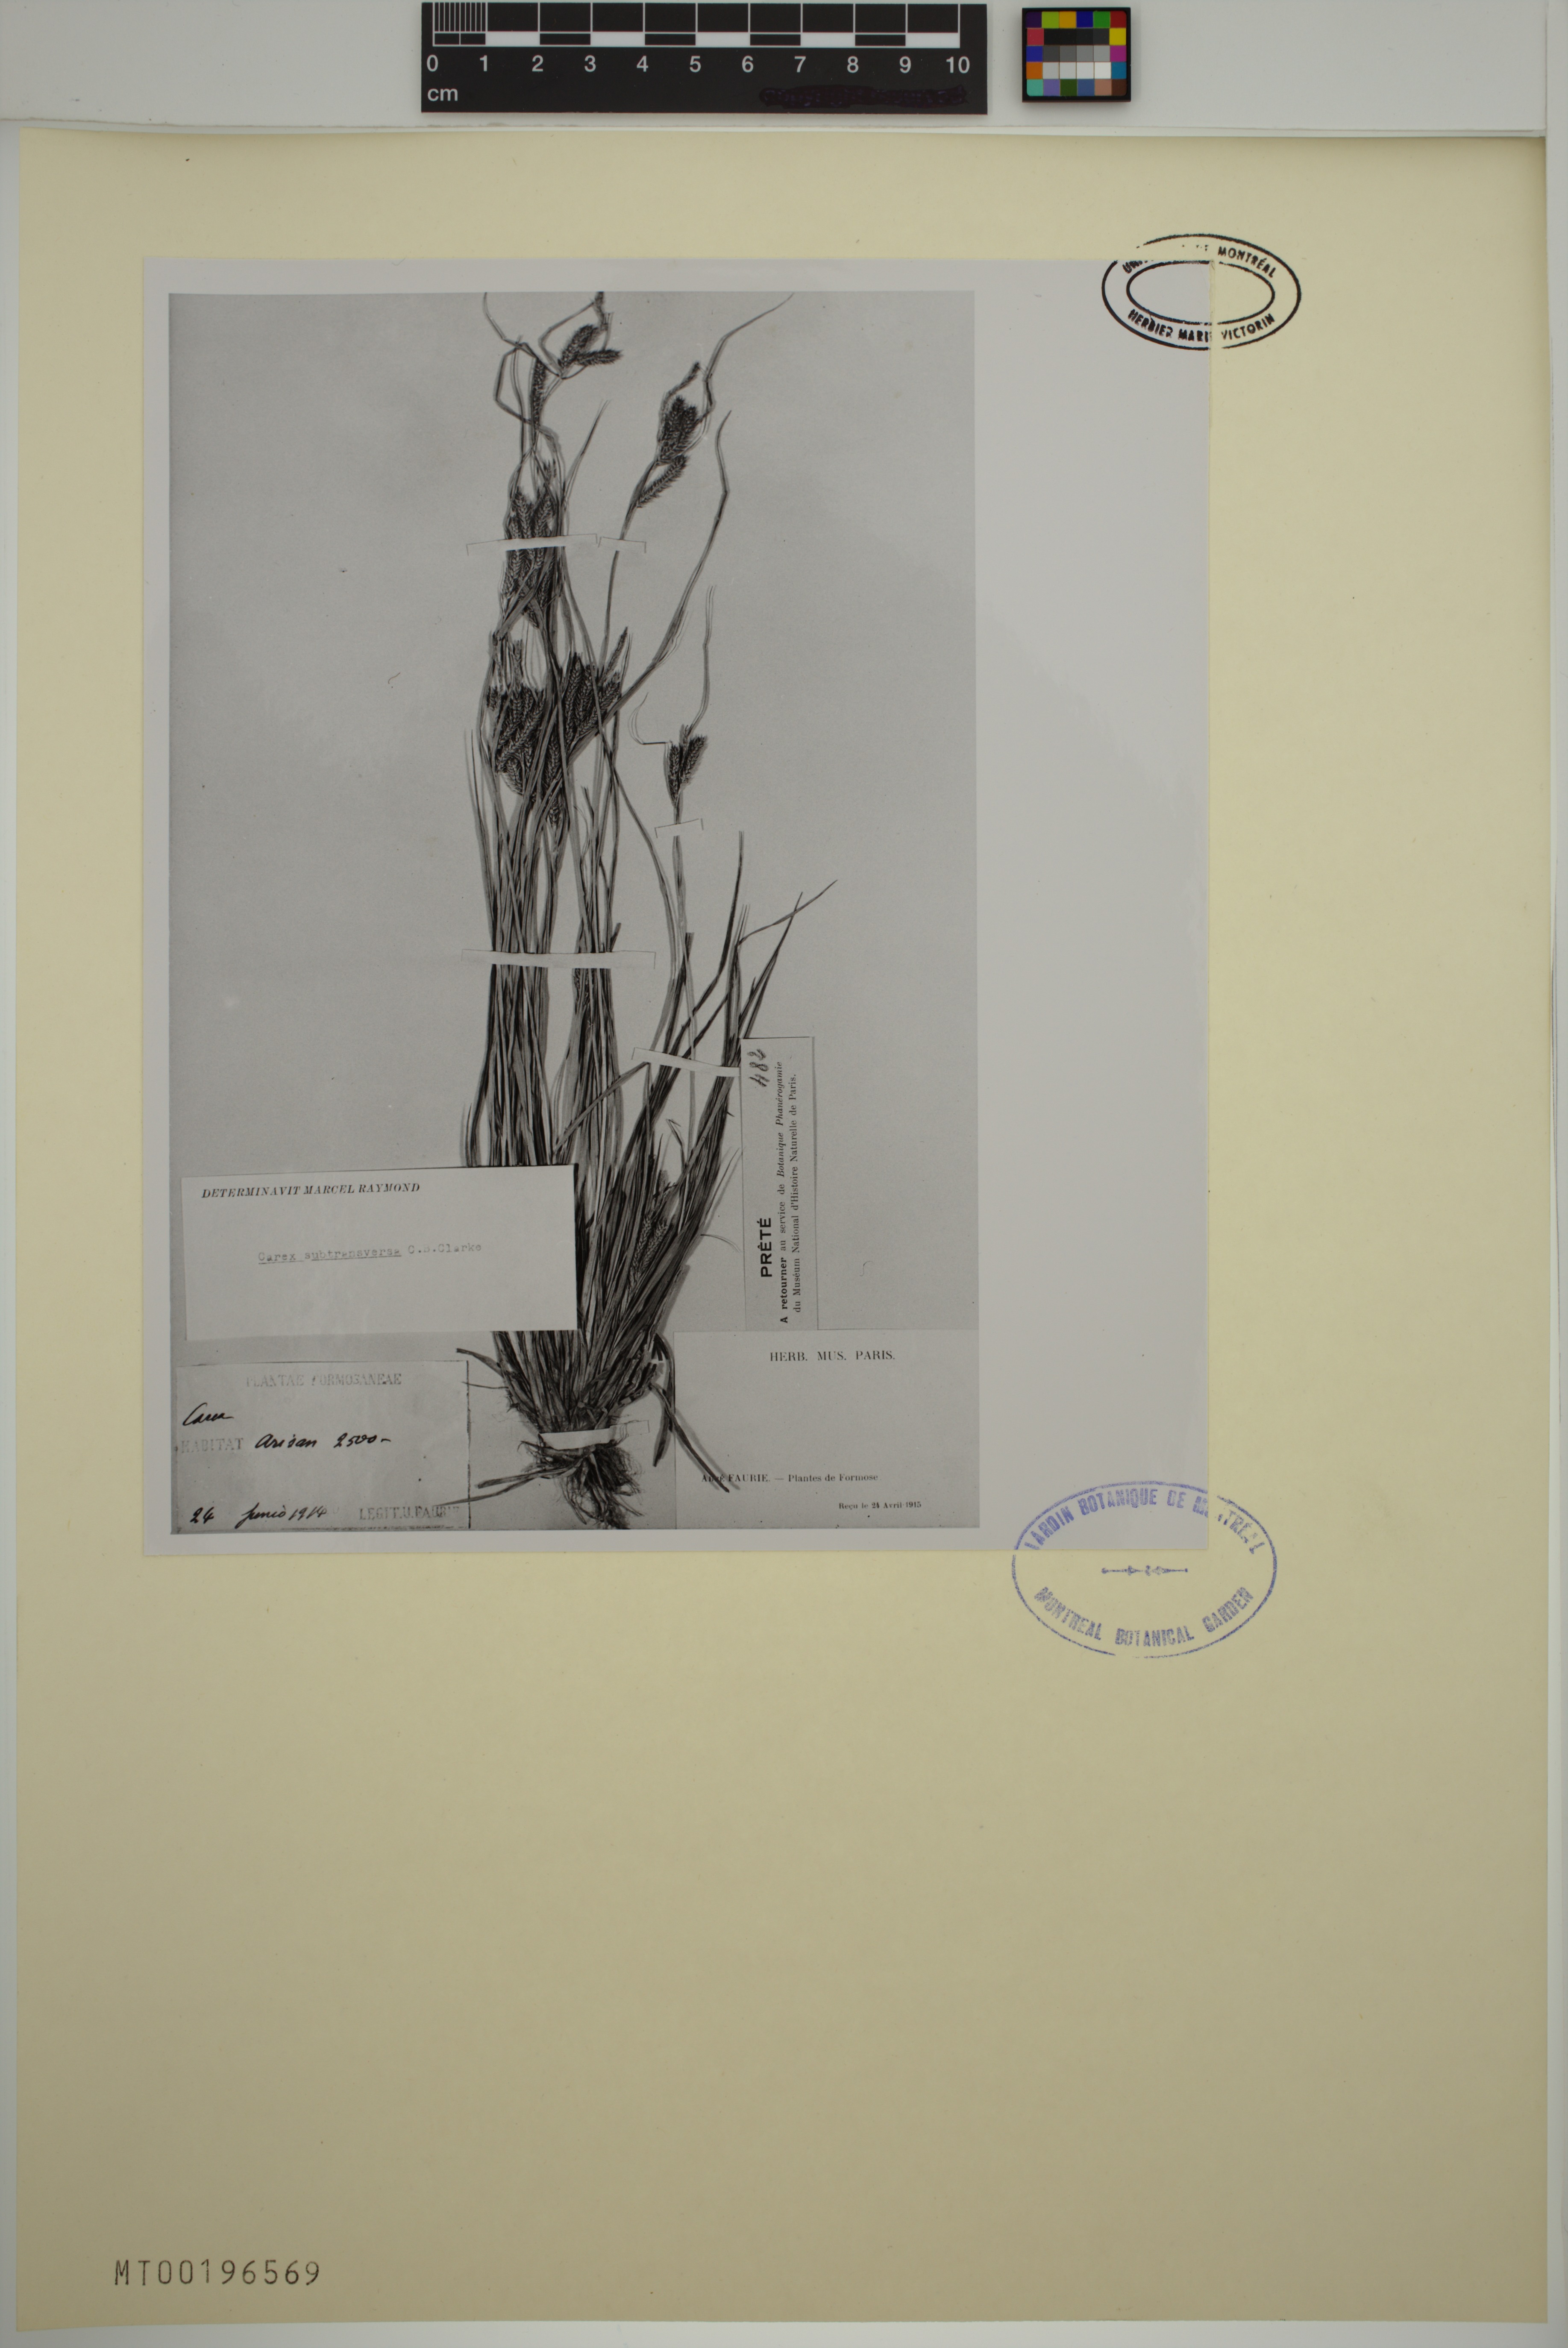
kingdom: Plantae
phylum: Tracheophyta
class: Liliopsida
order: Poales
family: Cyperaceae
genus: Carex
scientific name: Carex subtransversa
